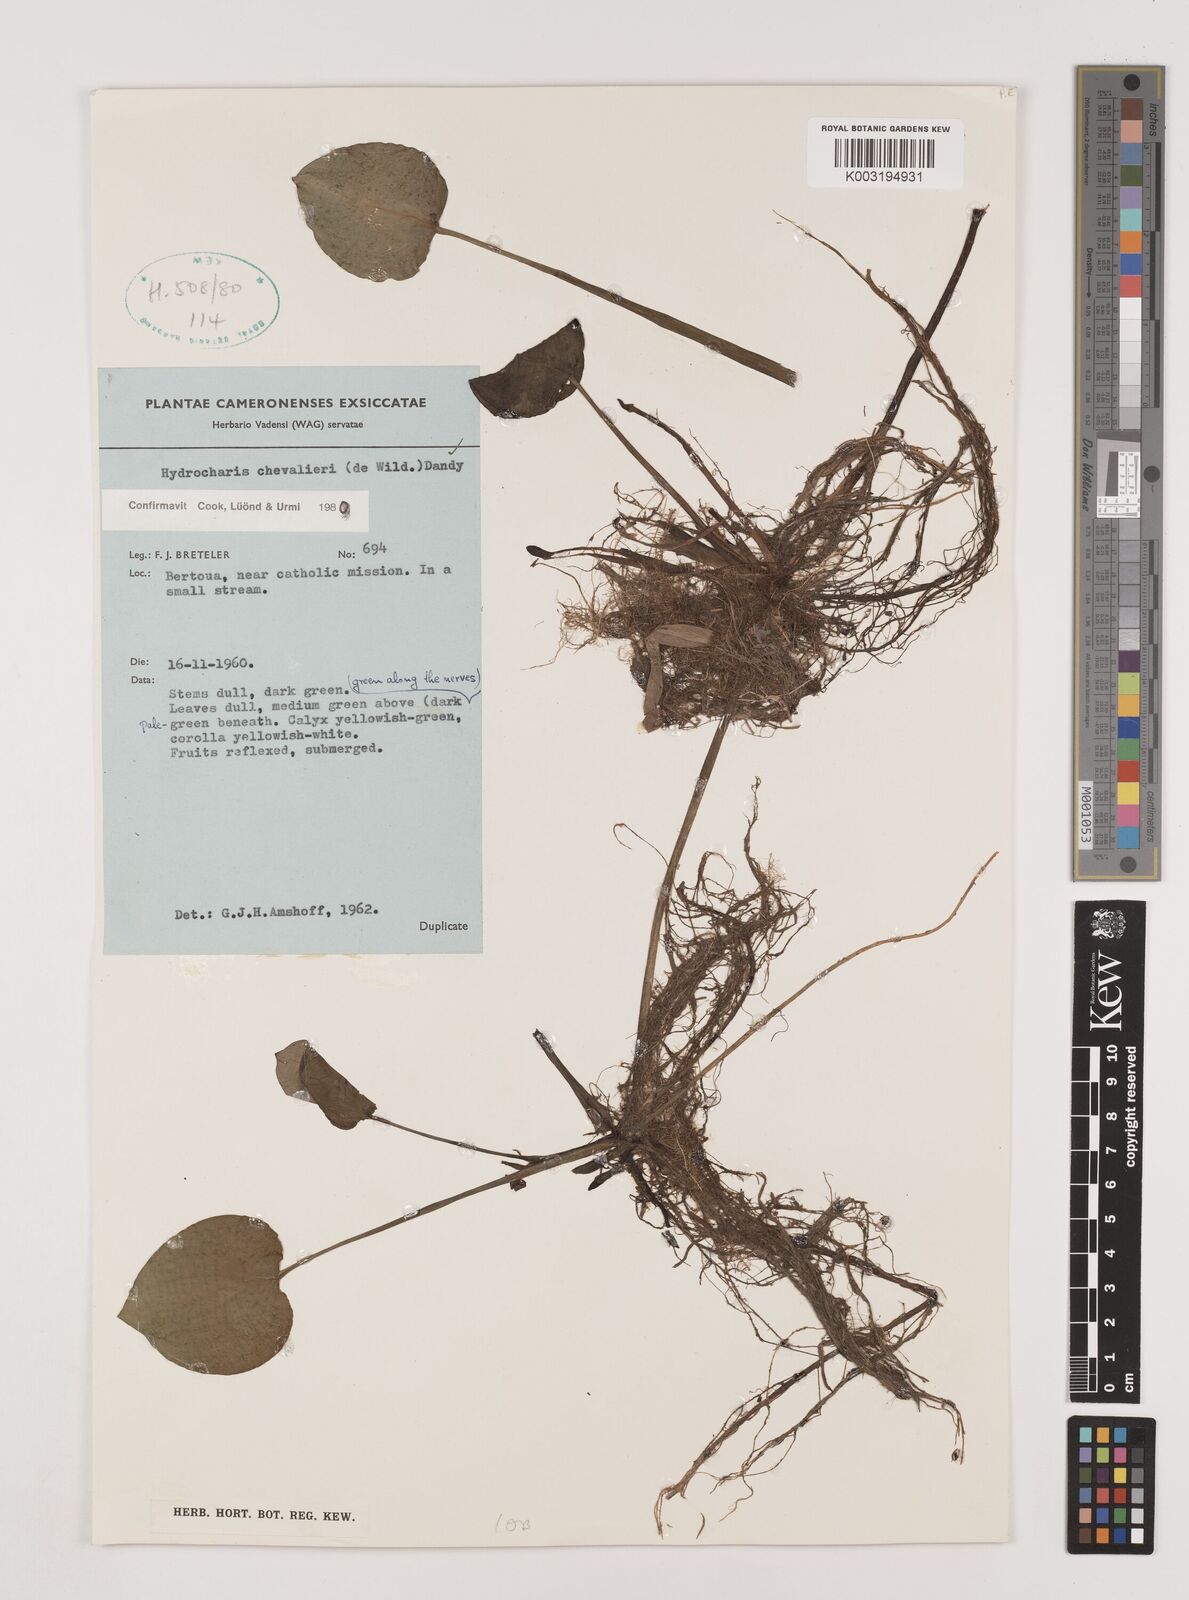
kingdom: Plantae
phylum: Tracheophyta
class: Liliopsida
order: Alismatales
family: Hydrocharitaceae
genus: Hydrocharis
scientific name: Hydrocharis chevalieri
